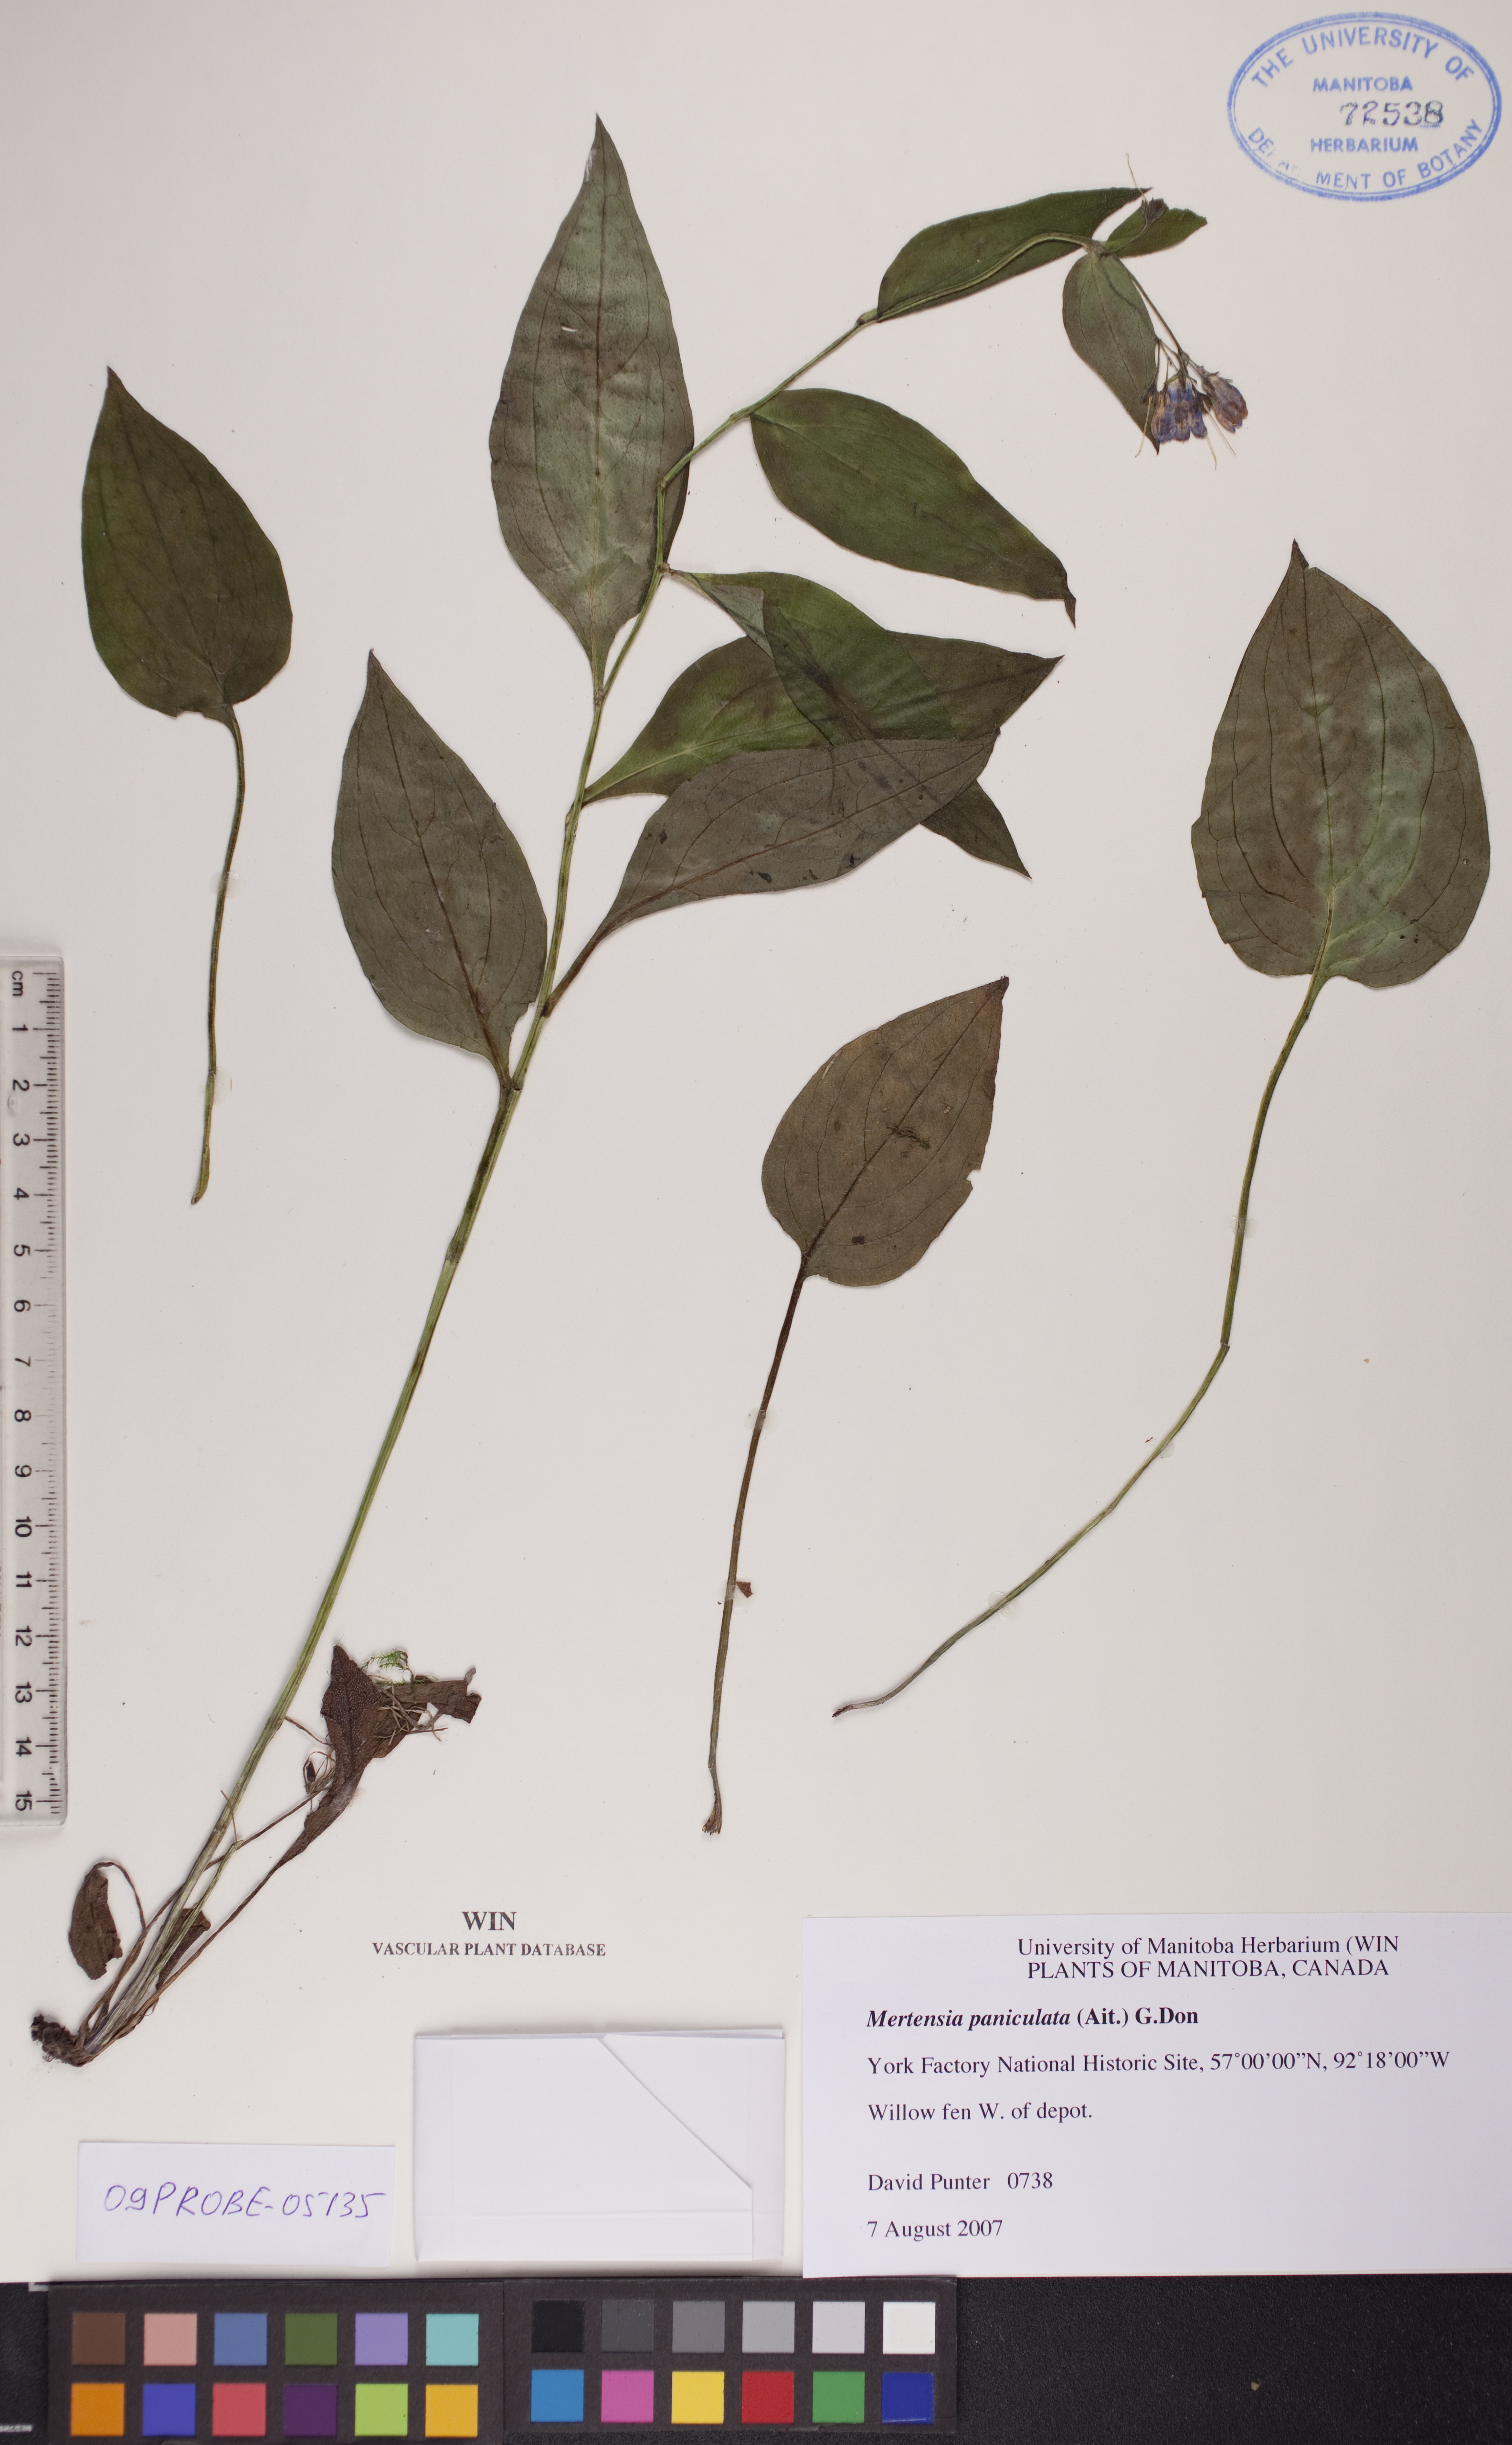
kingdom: Plantae
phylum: Tracheophyta
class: Magnoliopsida
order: Boraginales
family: Boraginaceae
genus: Mertensia
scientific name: Mertensia paniculata
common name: Panicled bluebells
